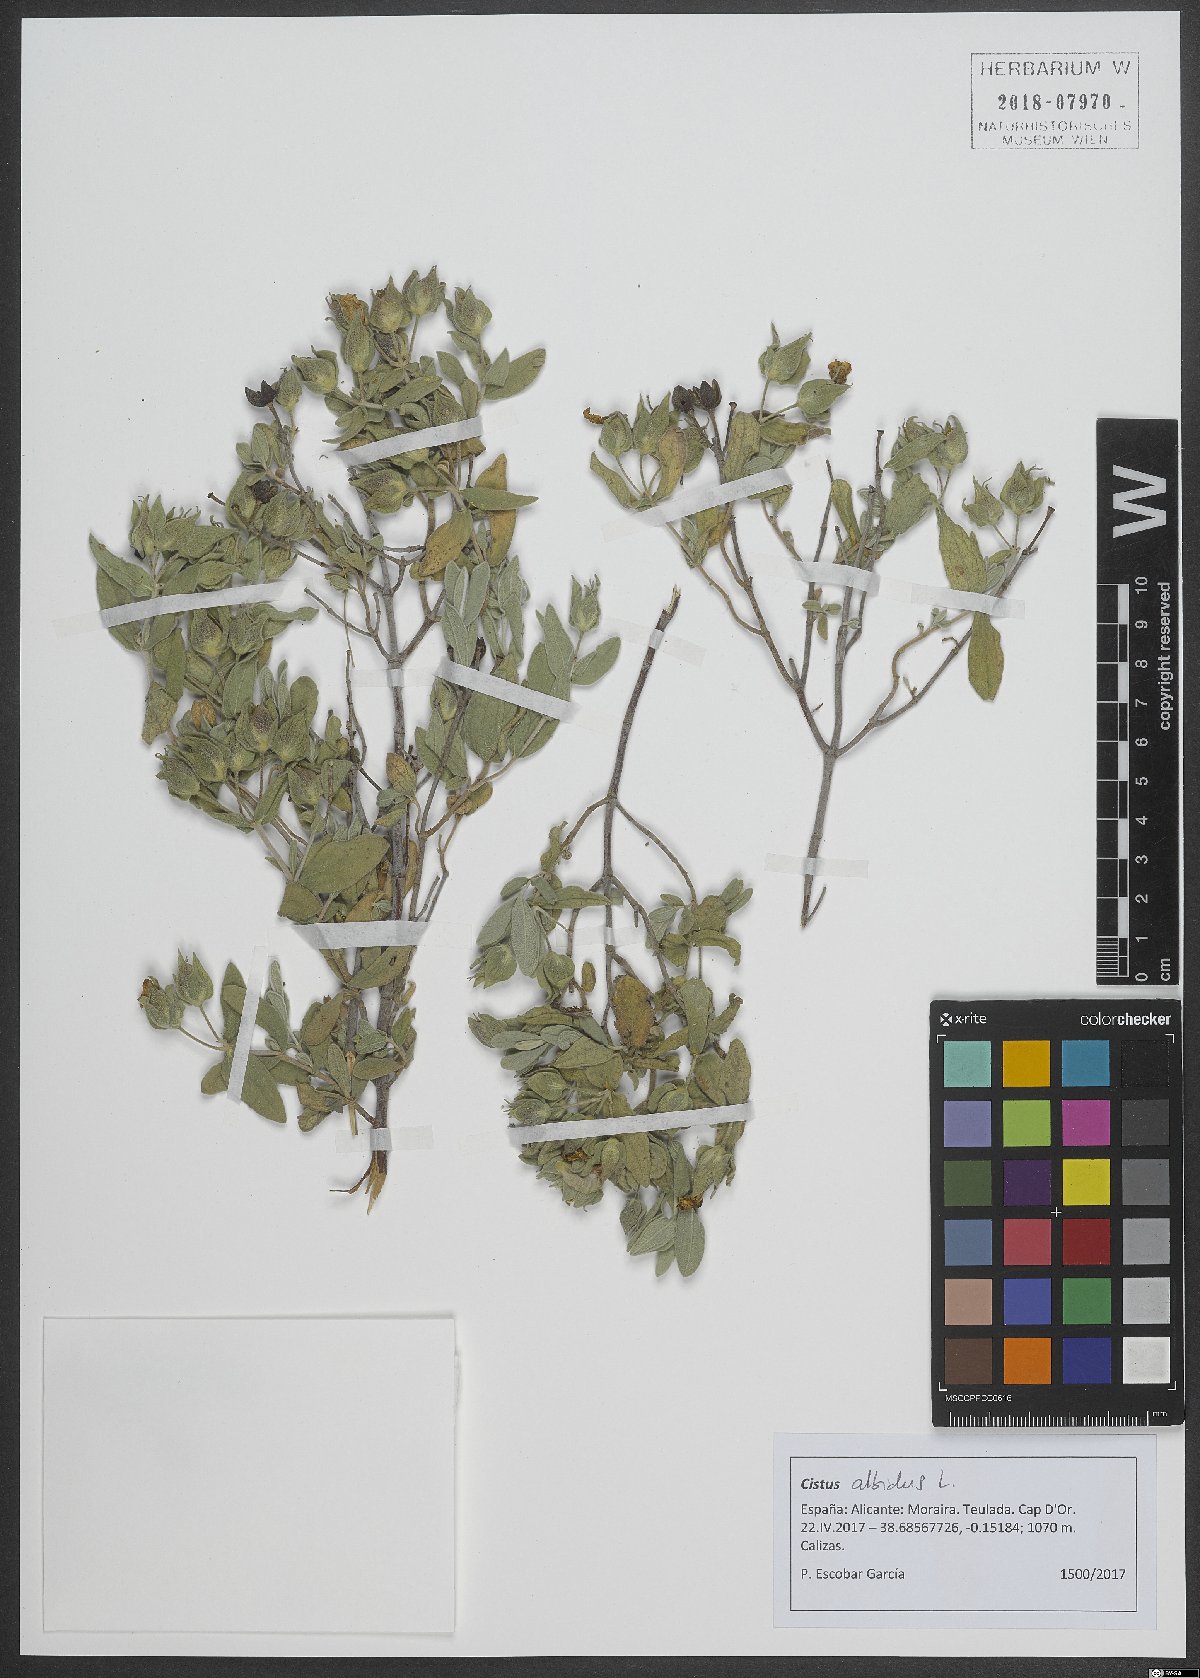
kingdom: Plantae
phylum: Tracheophyta
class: Magnoliopsida
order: Malvales
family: Cistaceae
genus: Cistus
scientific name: Cistus albidus
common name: White-leaf rock-rose
